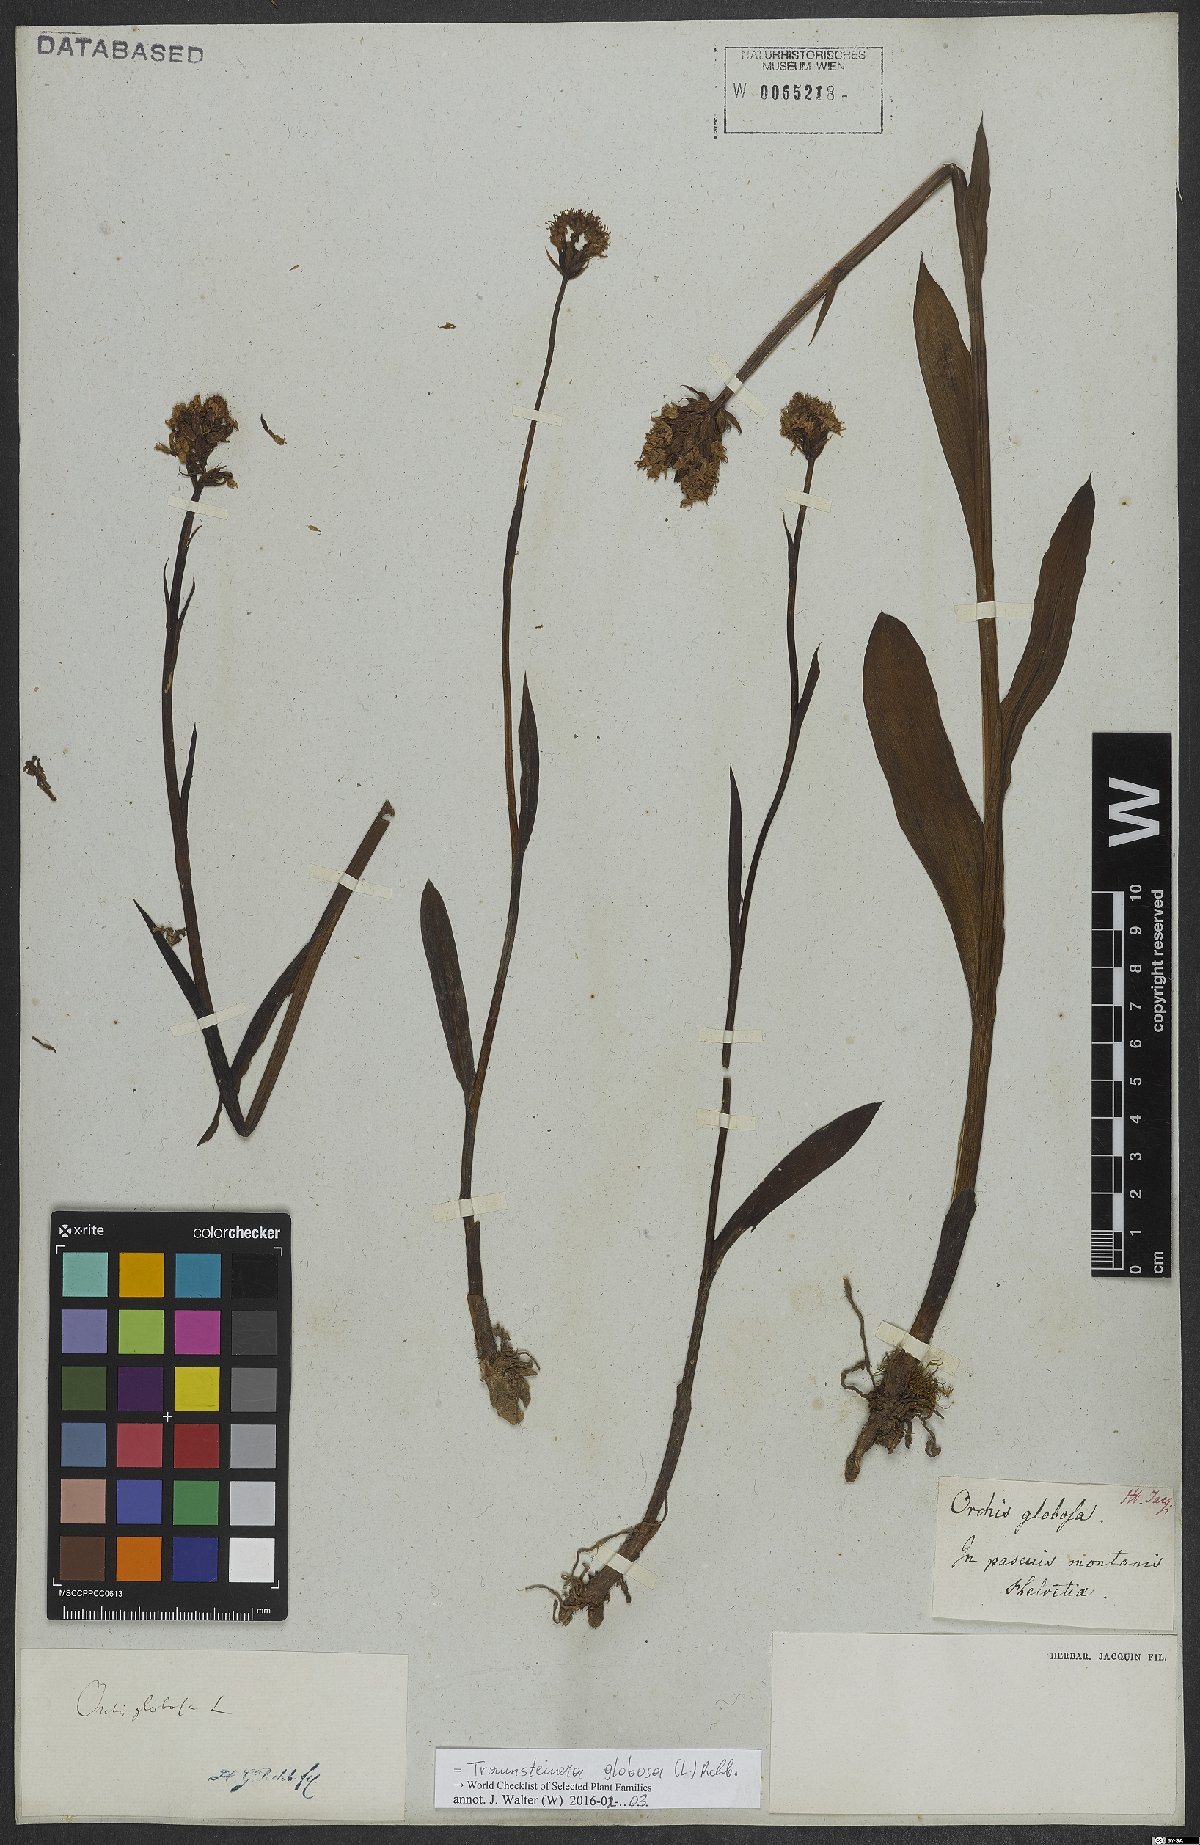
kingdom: Plantae
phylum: Tracheophyta
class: Liliopsida
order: Asparagales
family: Orchidaceae
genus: Traunsteinera
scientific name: Traunsteinera globosa
